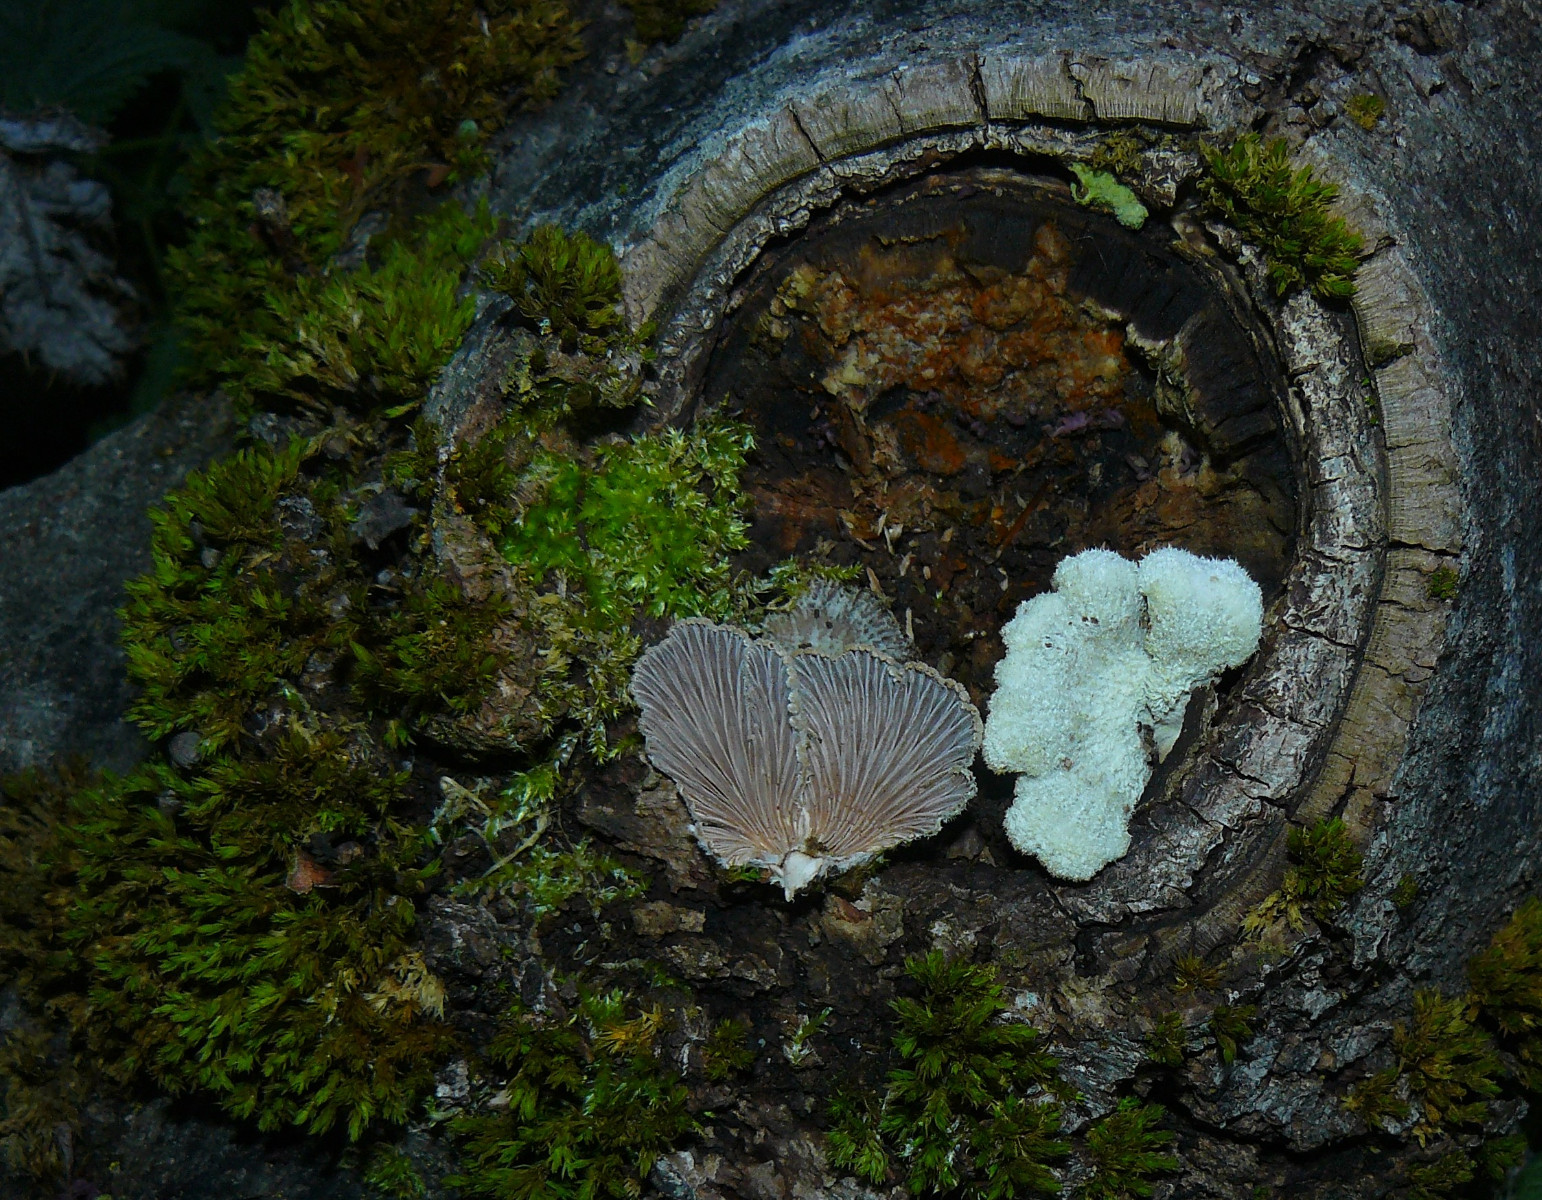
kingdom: Fungi
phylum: Basidiomycota
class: Agaricomycetes
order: Agaricales
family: Schizophyllaceae
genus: Schizophyllum
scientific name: Schizophyllum commune
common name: kløvblad
